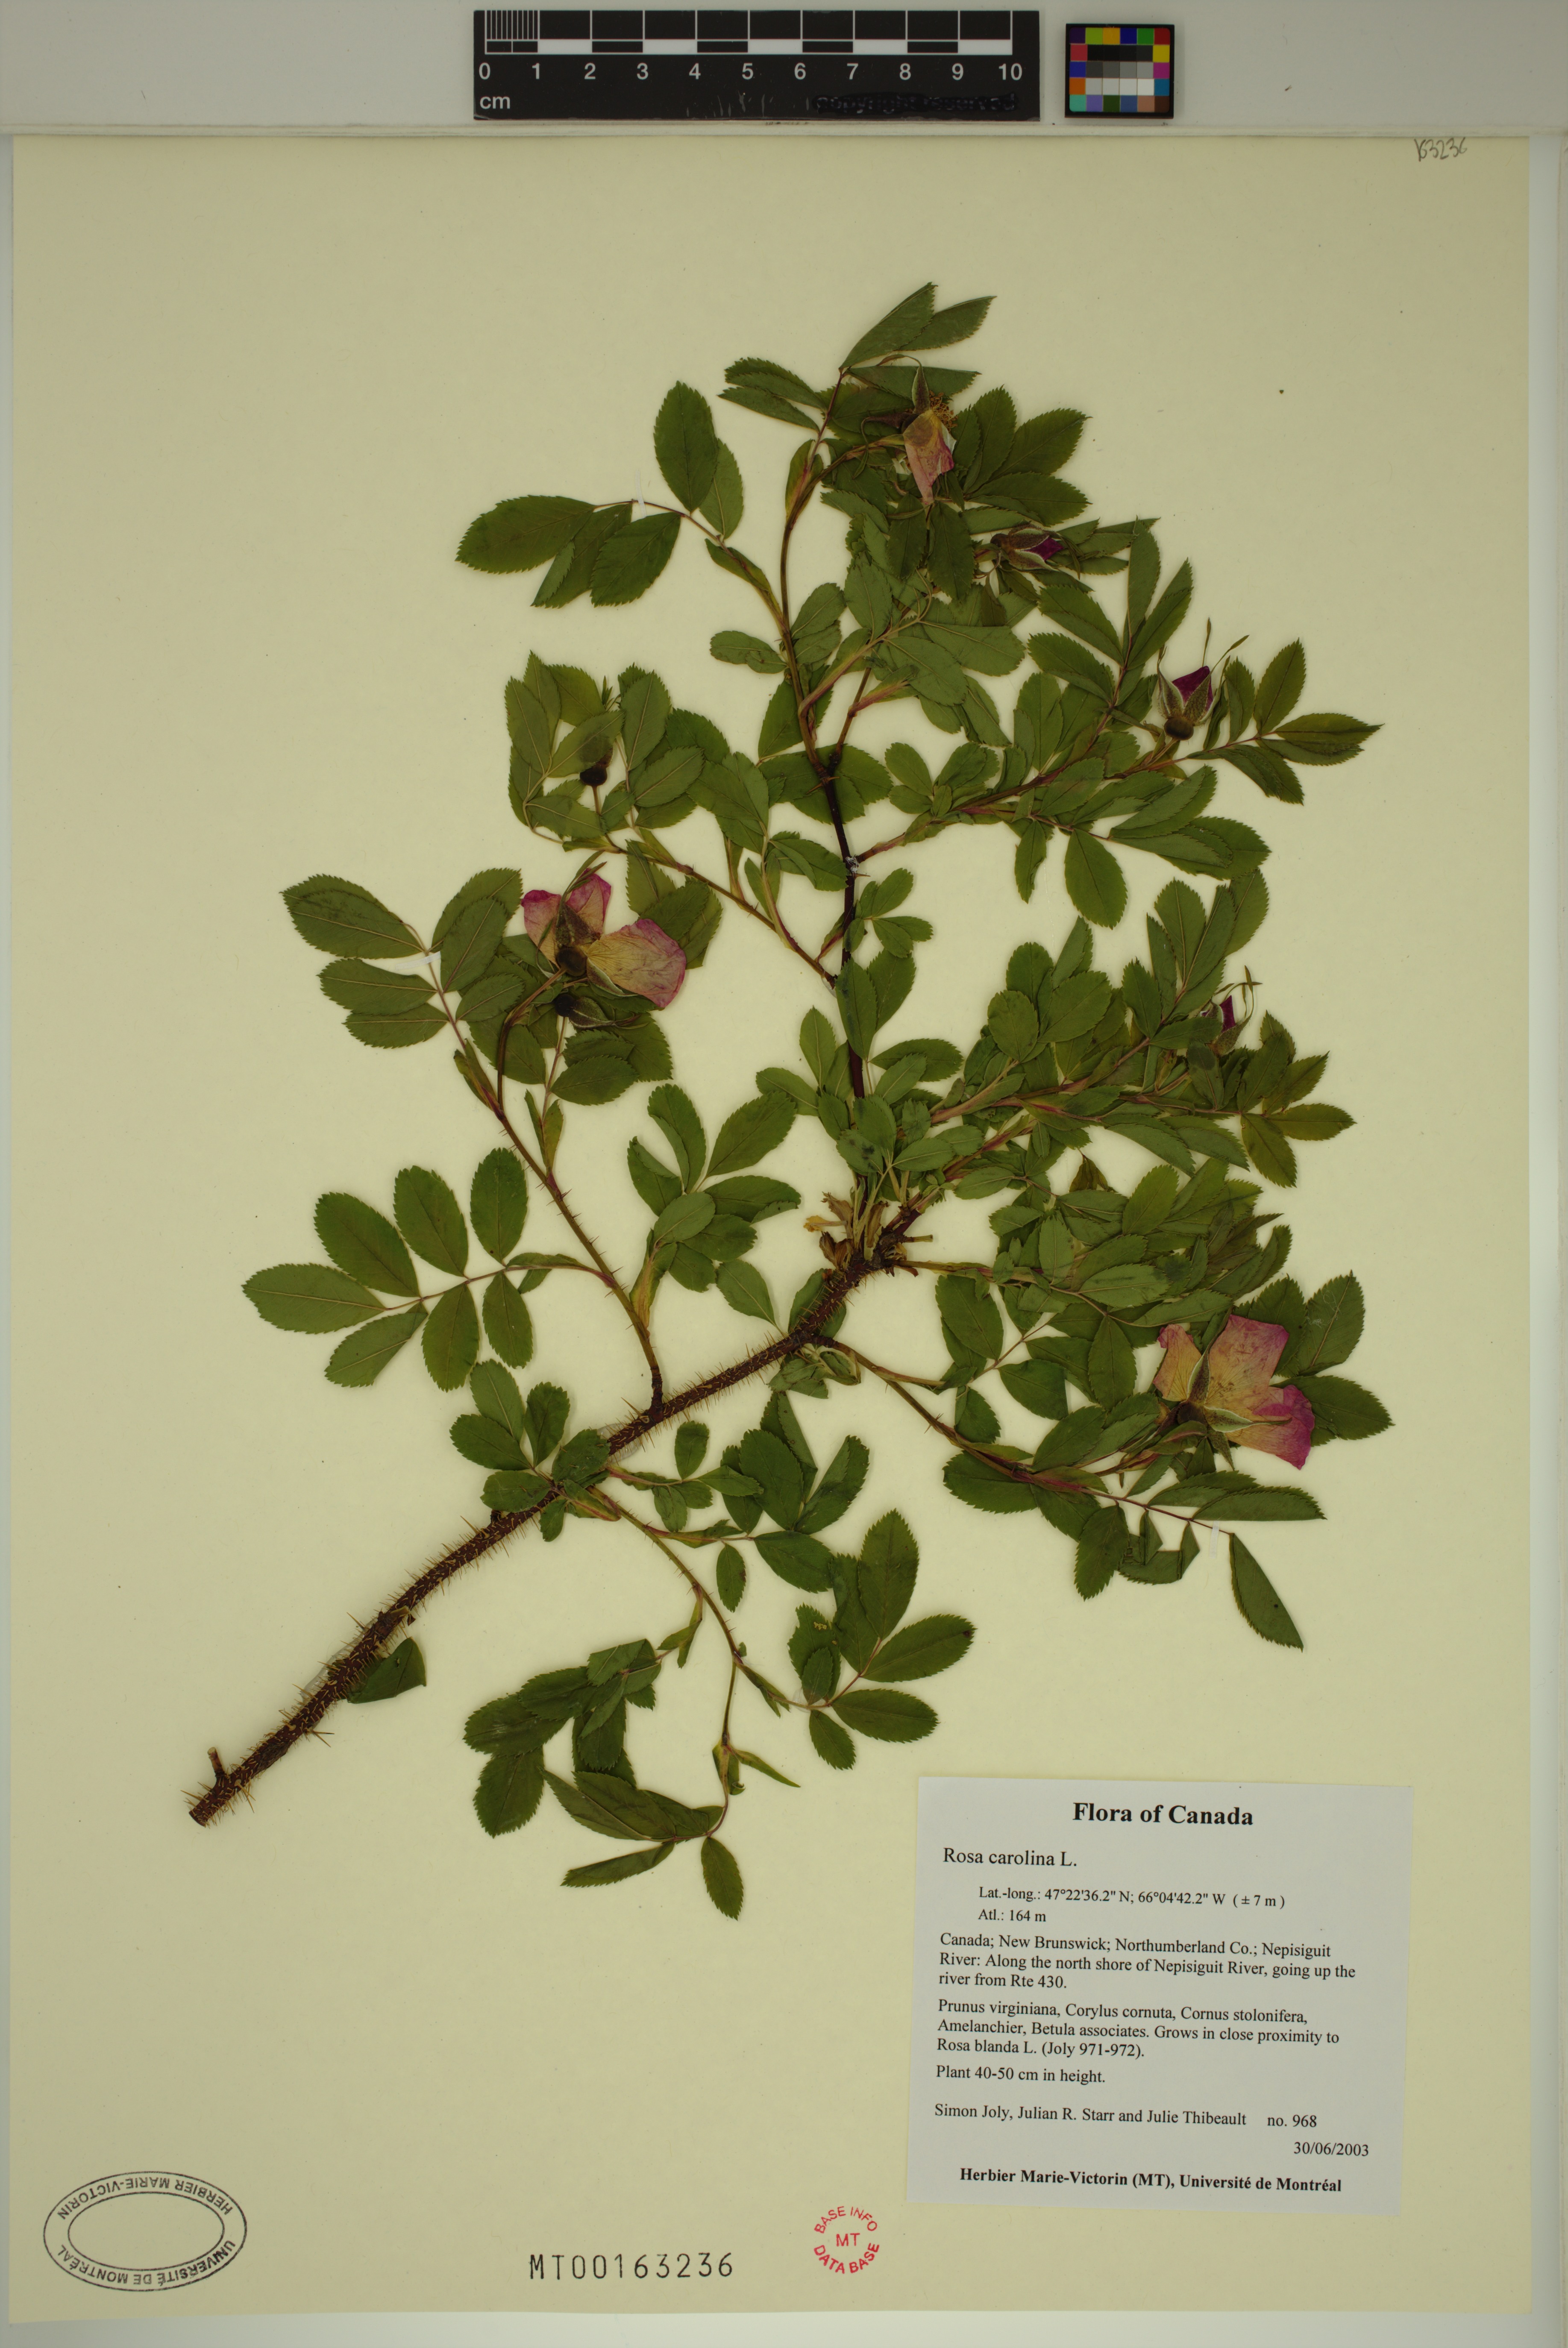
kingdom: Plantae
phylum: Tracheophyta
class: Magnoliopsida
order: Rosales
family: Rosaceae
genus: Rosa
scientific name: Rosa carolina
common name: Pasture rose
